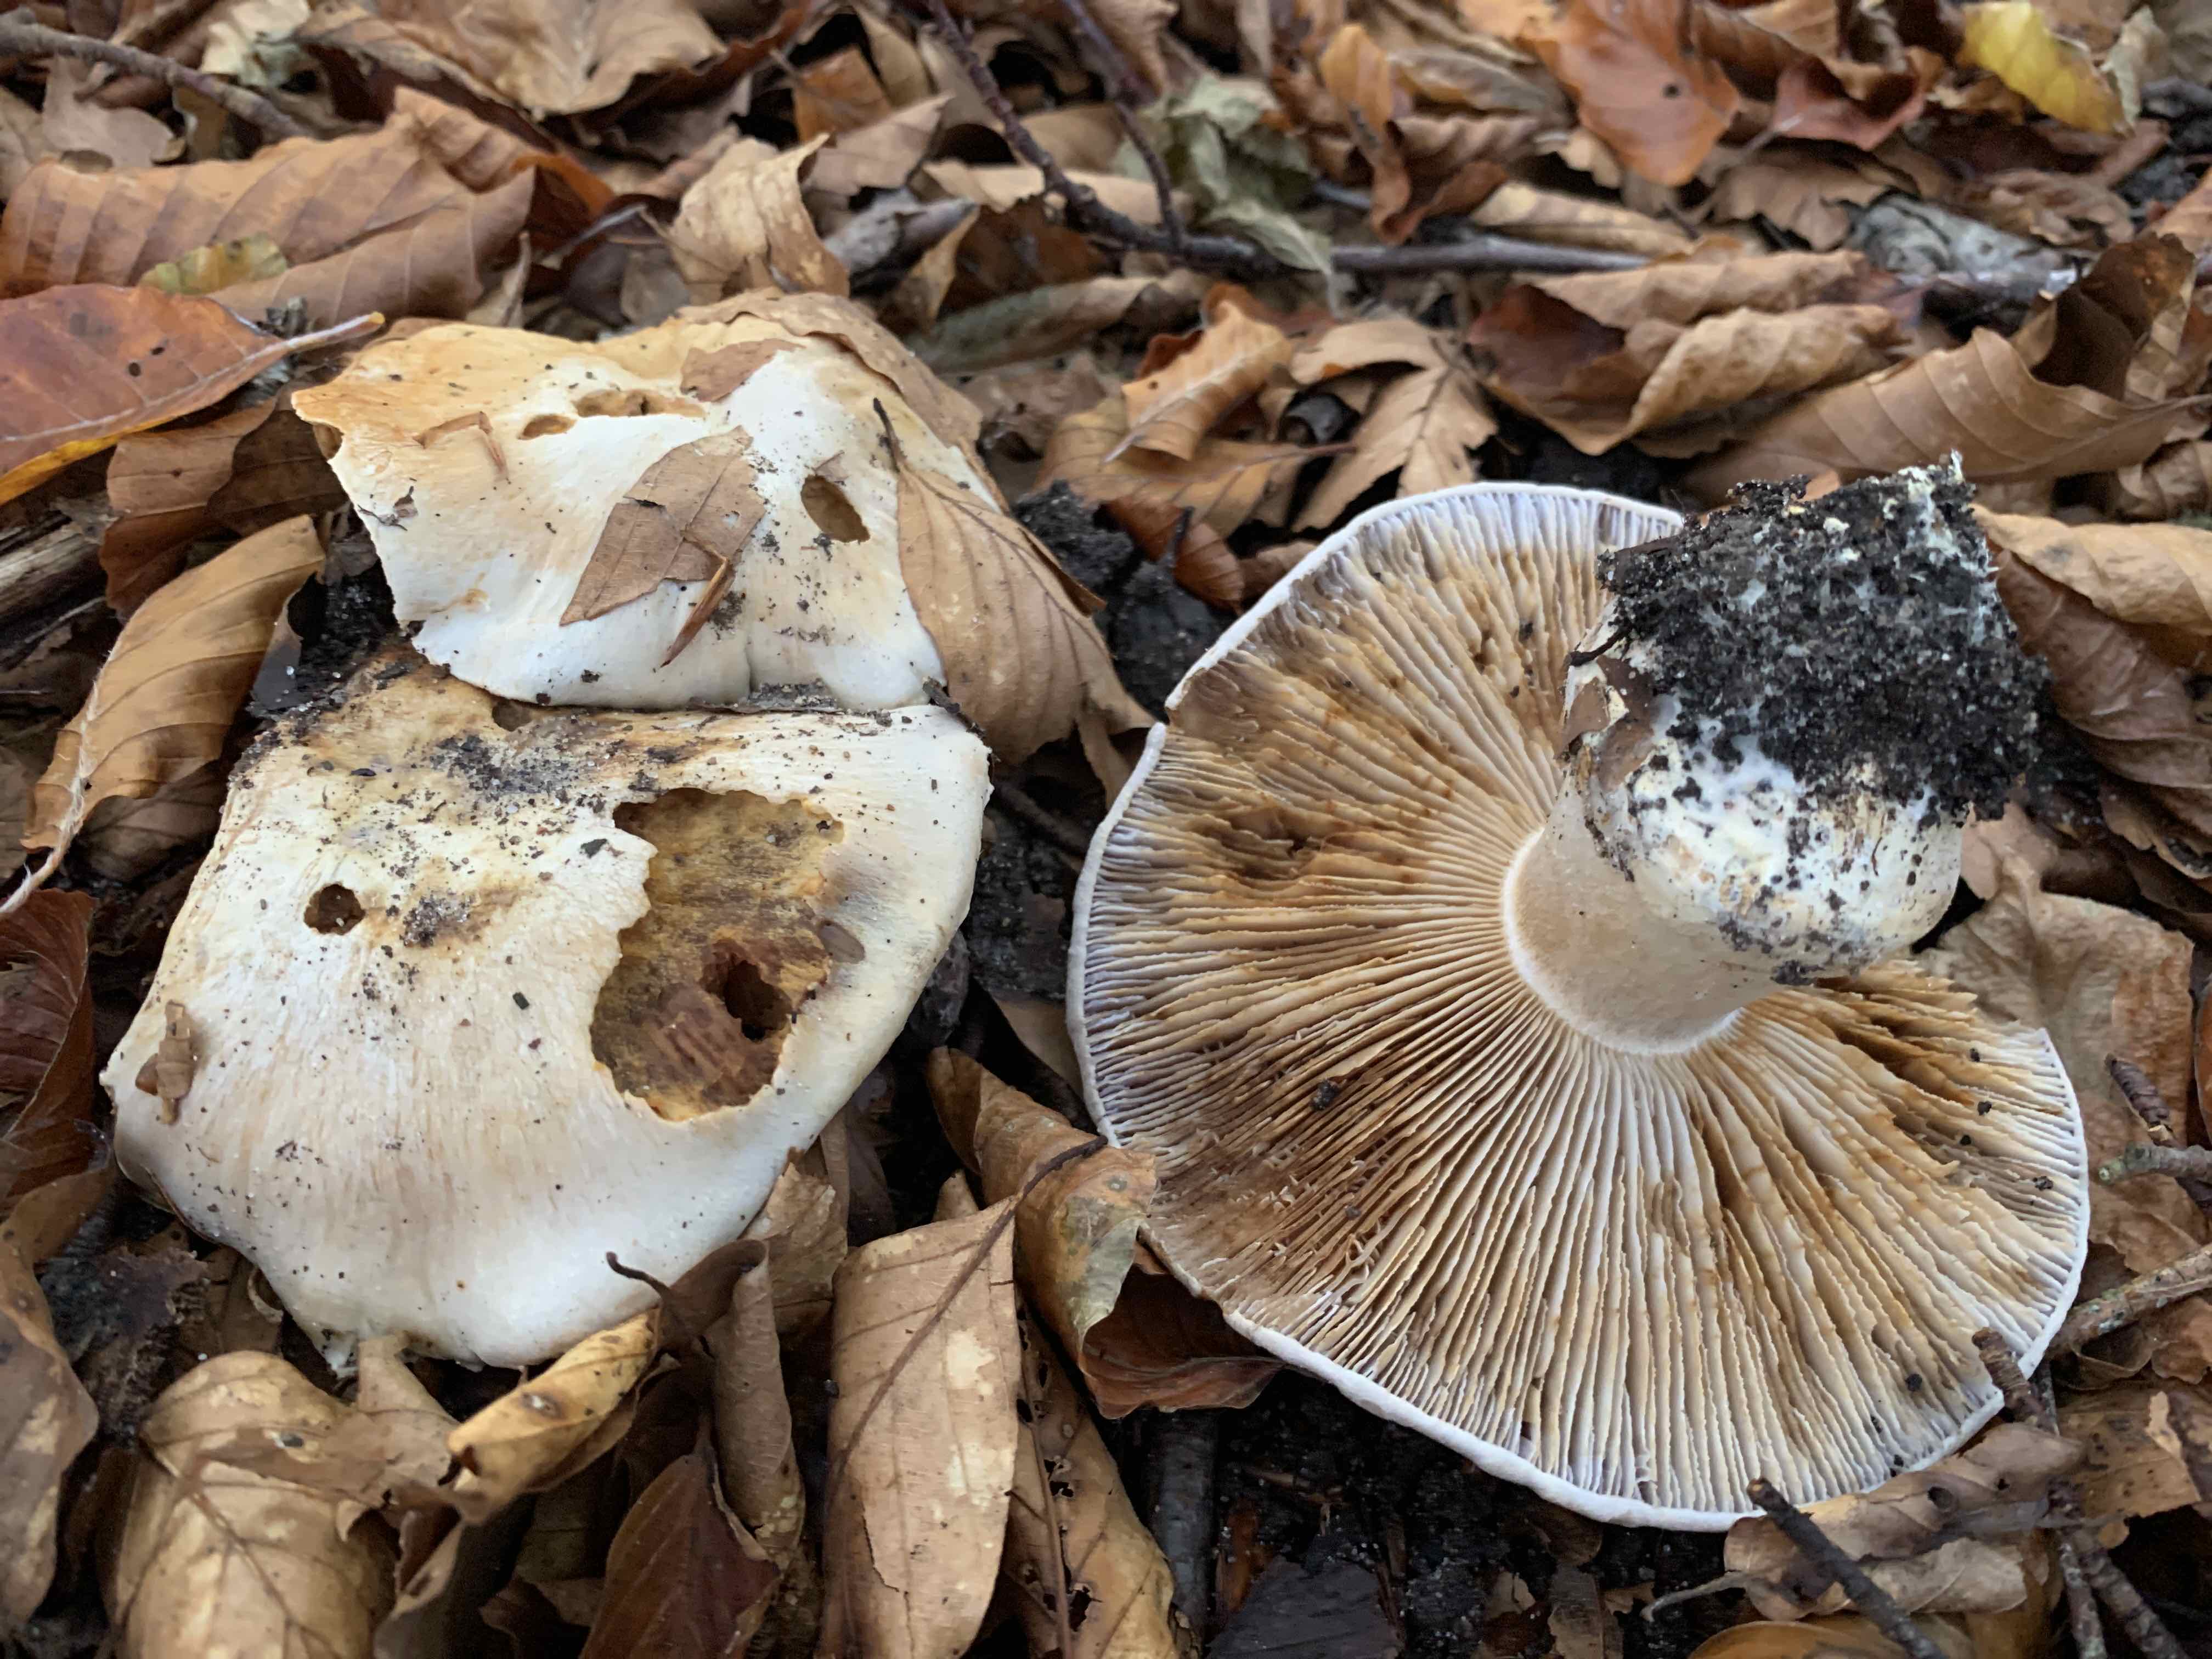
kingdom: Fungi
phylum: Basidiomycota
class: Agaricomycetes
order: Agaricales
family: Cortinariaceae
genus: Cortinarius
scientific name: Cortinarius foetens
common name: stribet slørhat
